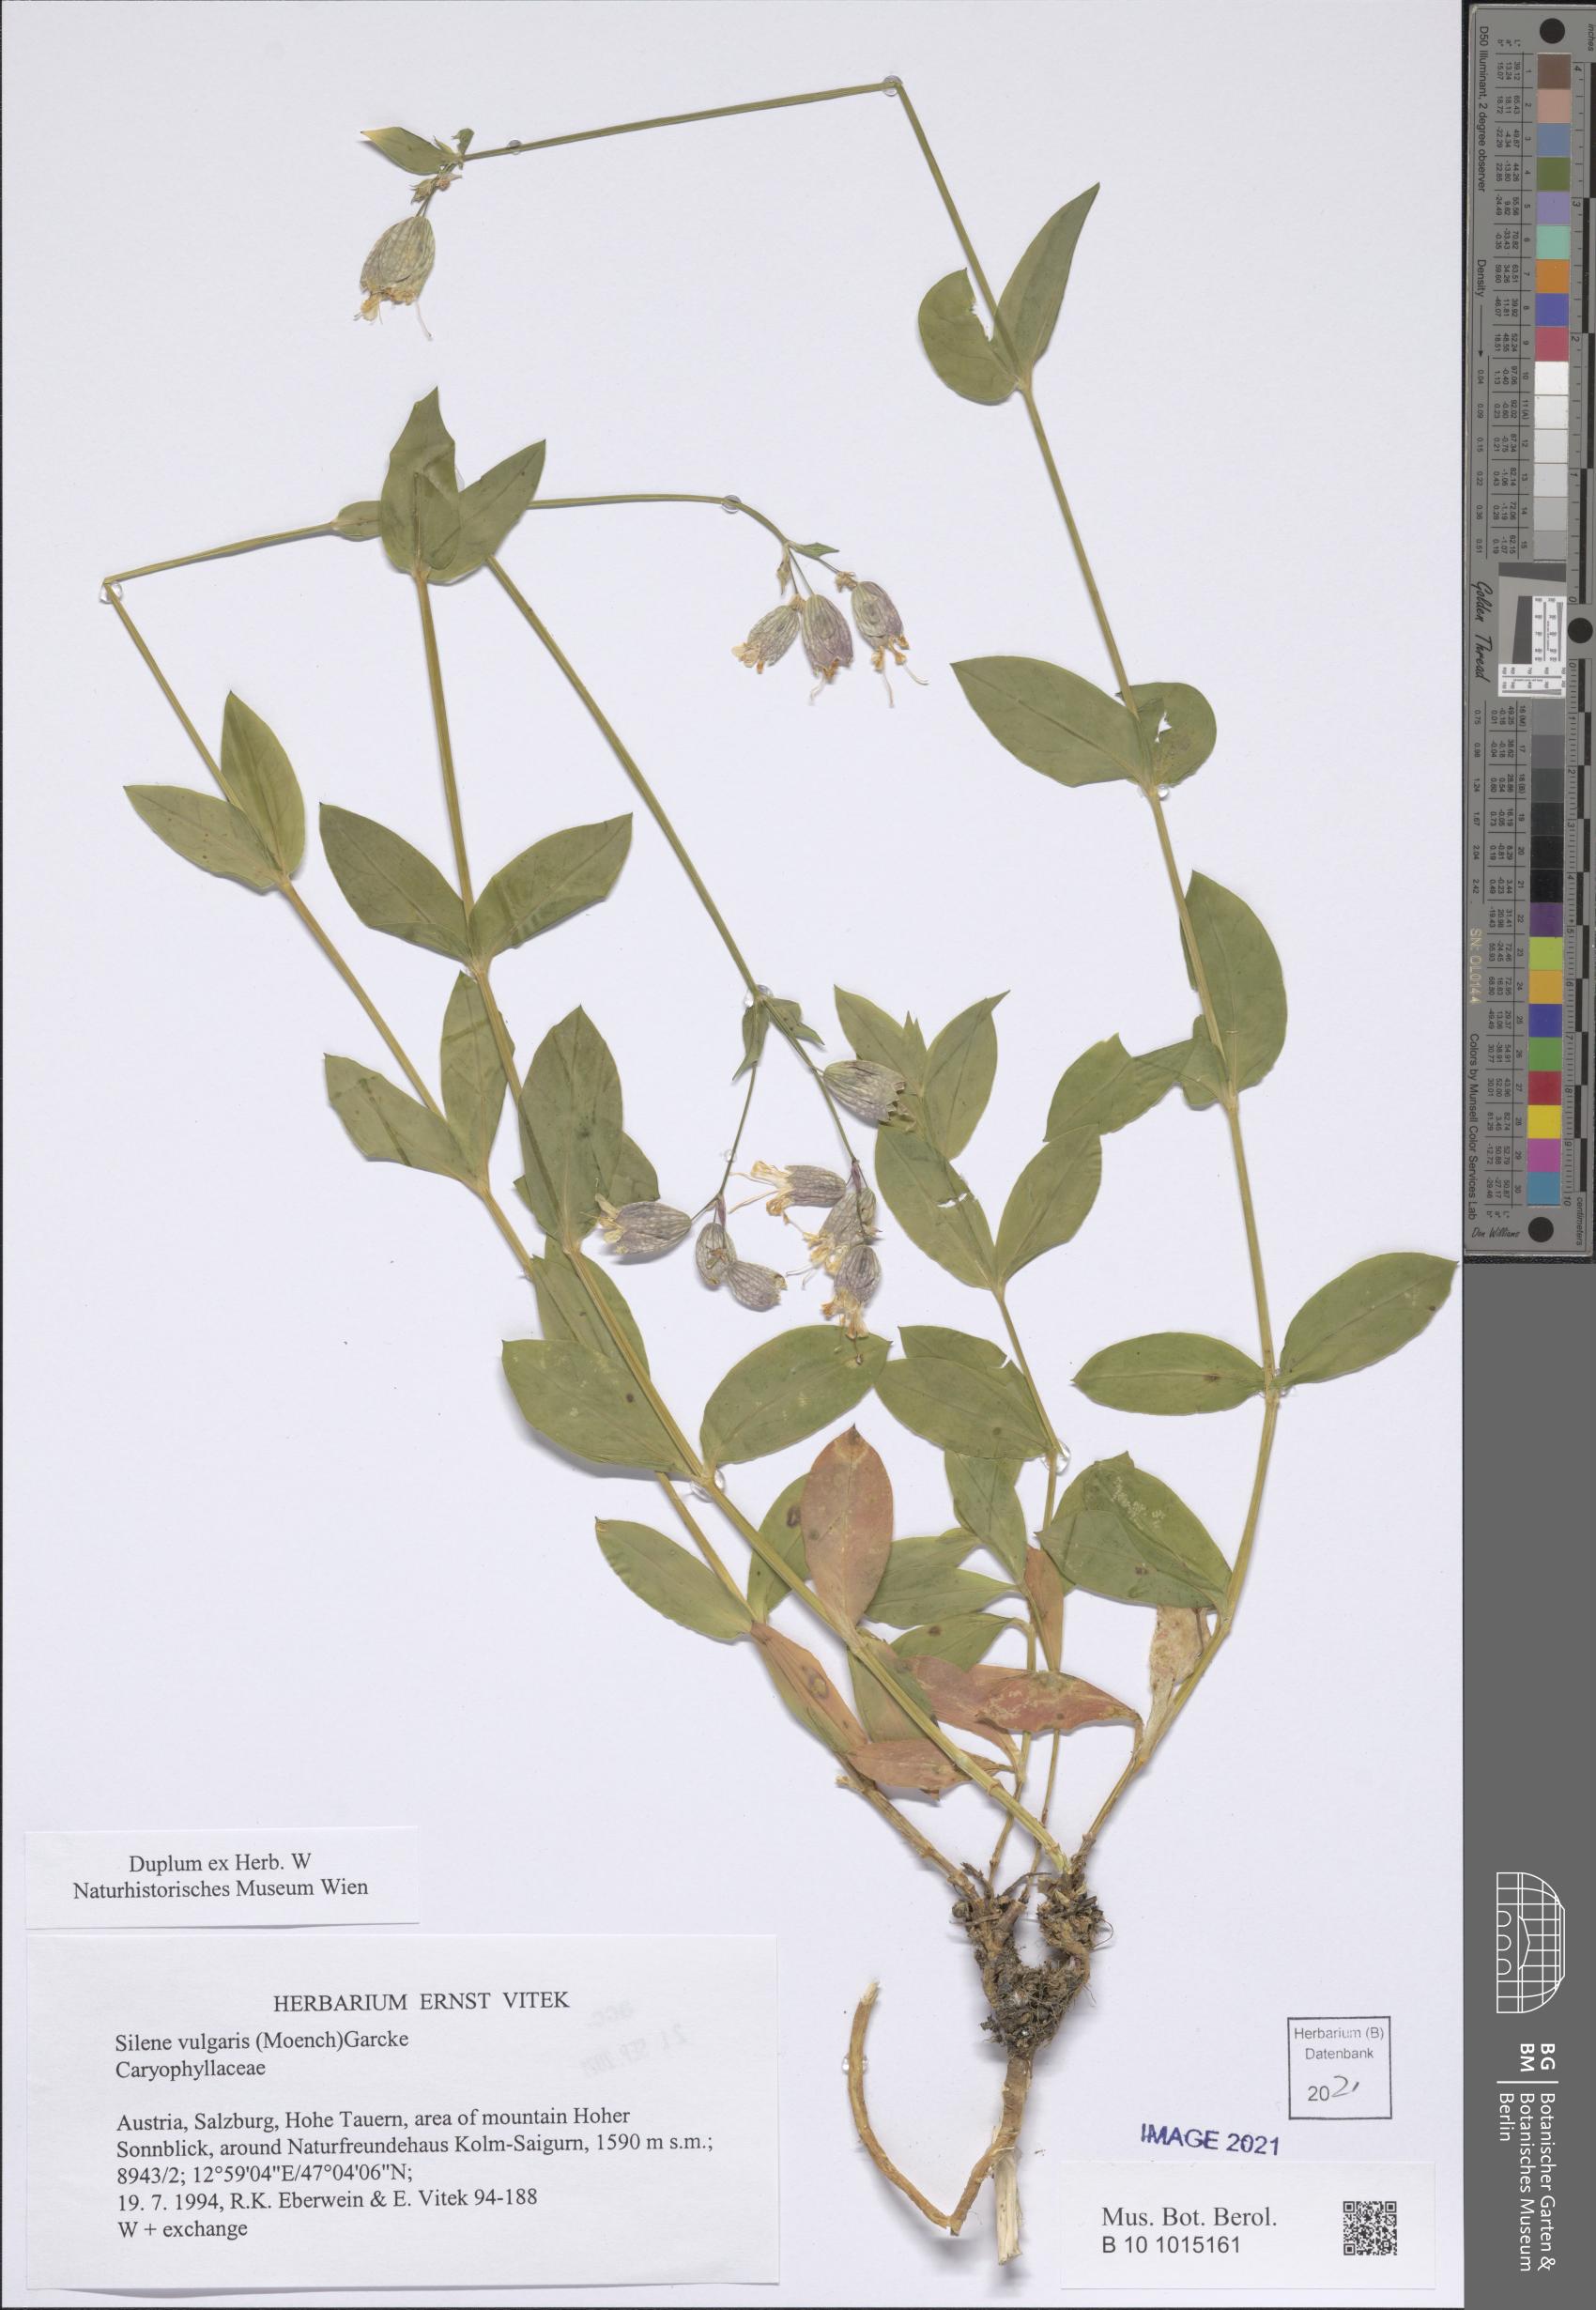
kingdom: Plantae
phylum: Tracheophyta
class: Magnoliopsida
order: Caryophyllales
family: Caryophyllaceae
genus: Silene
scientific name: Silene vulgaris
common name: Bladder campion
